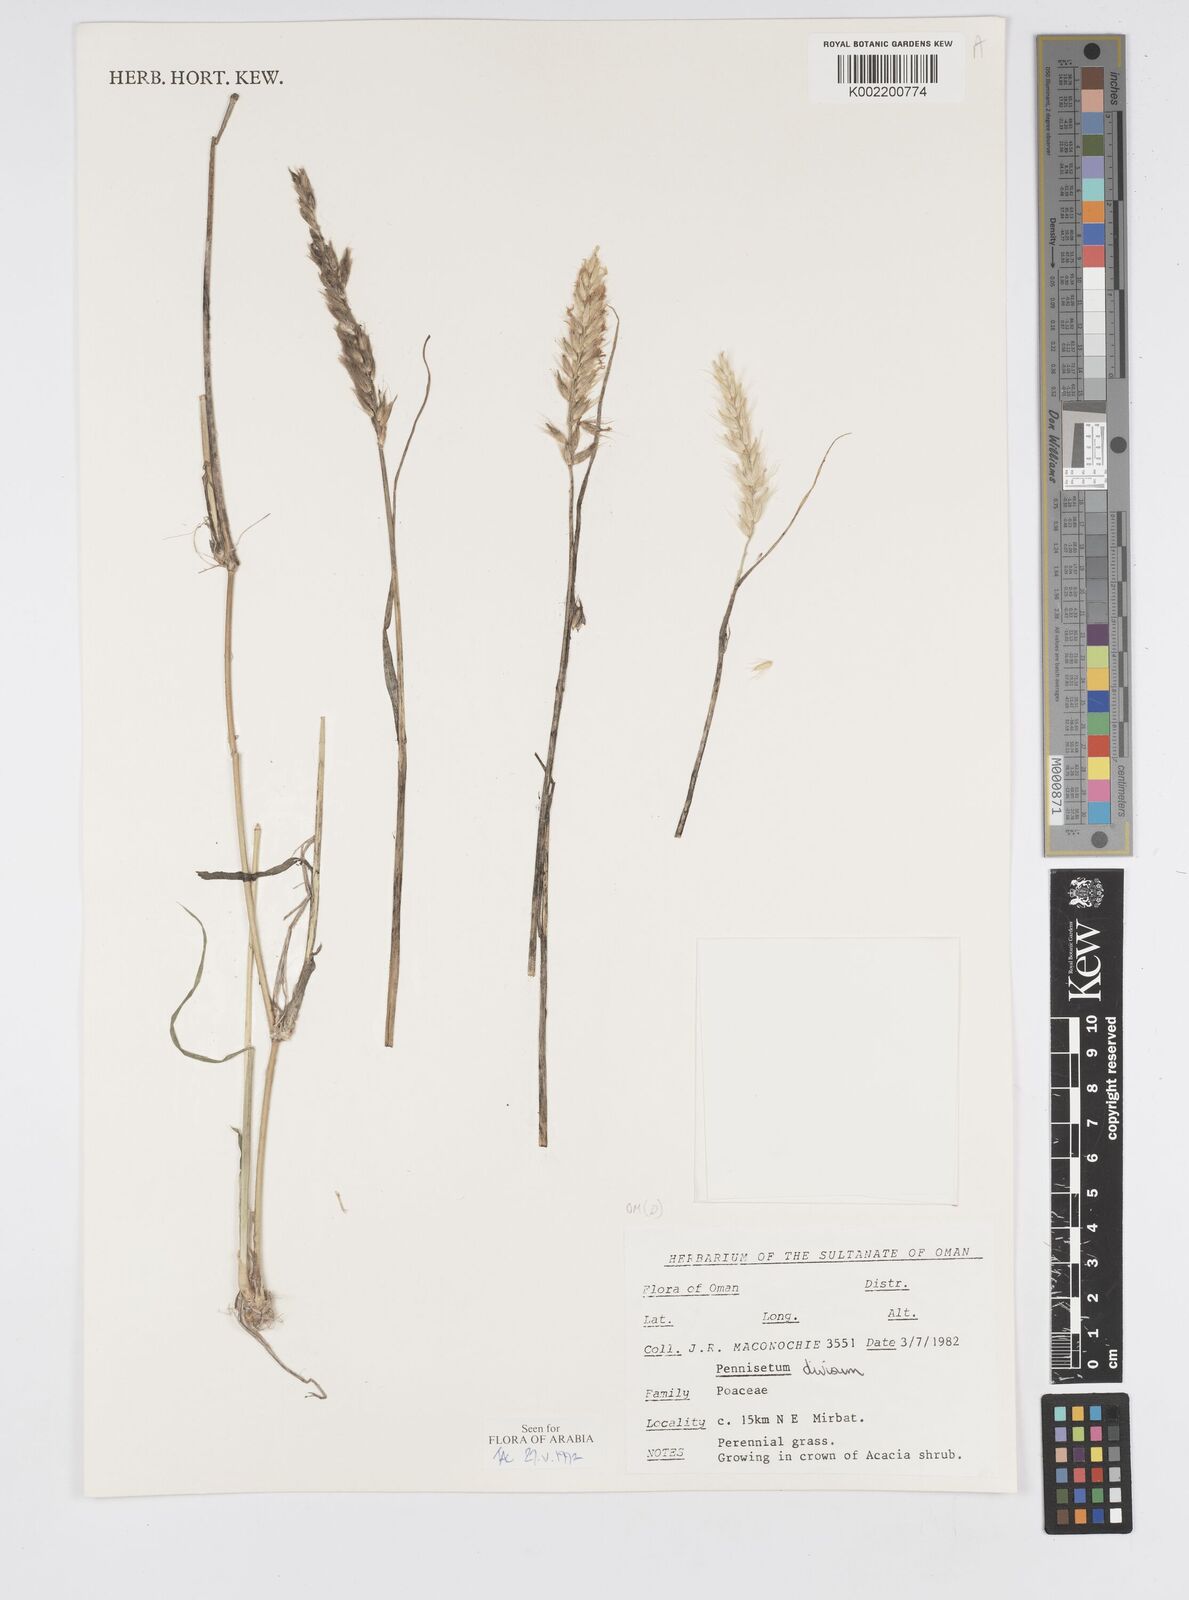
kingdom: Plantae
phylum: Tracheophyta
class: Liliopsida
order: Poales
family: Poaceae
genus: Cenchrus
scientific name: Cenchrus divisus
